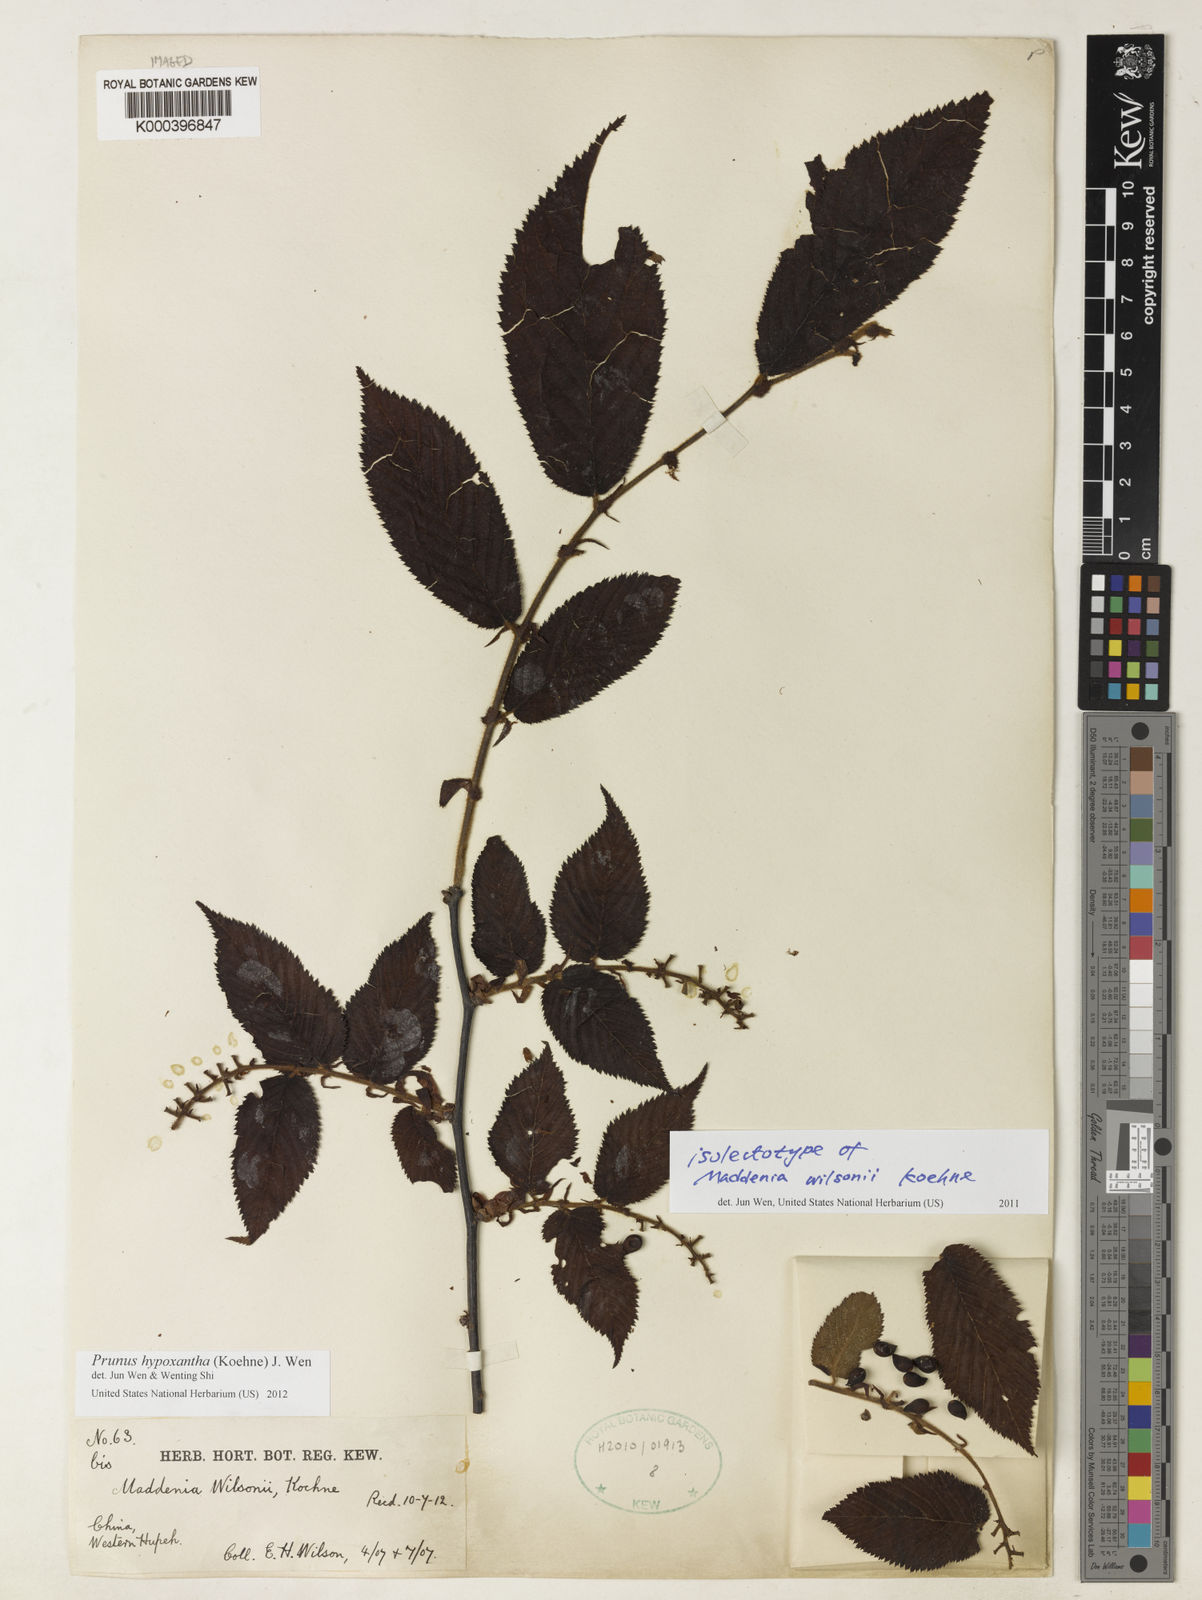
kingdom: Plantae
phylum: Tracheophyta
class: Magnoliopsida
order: Rosales
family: Rosaceae
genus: Prunus
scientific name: Prunus hypoxantha
